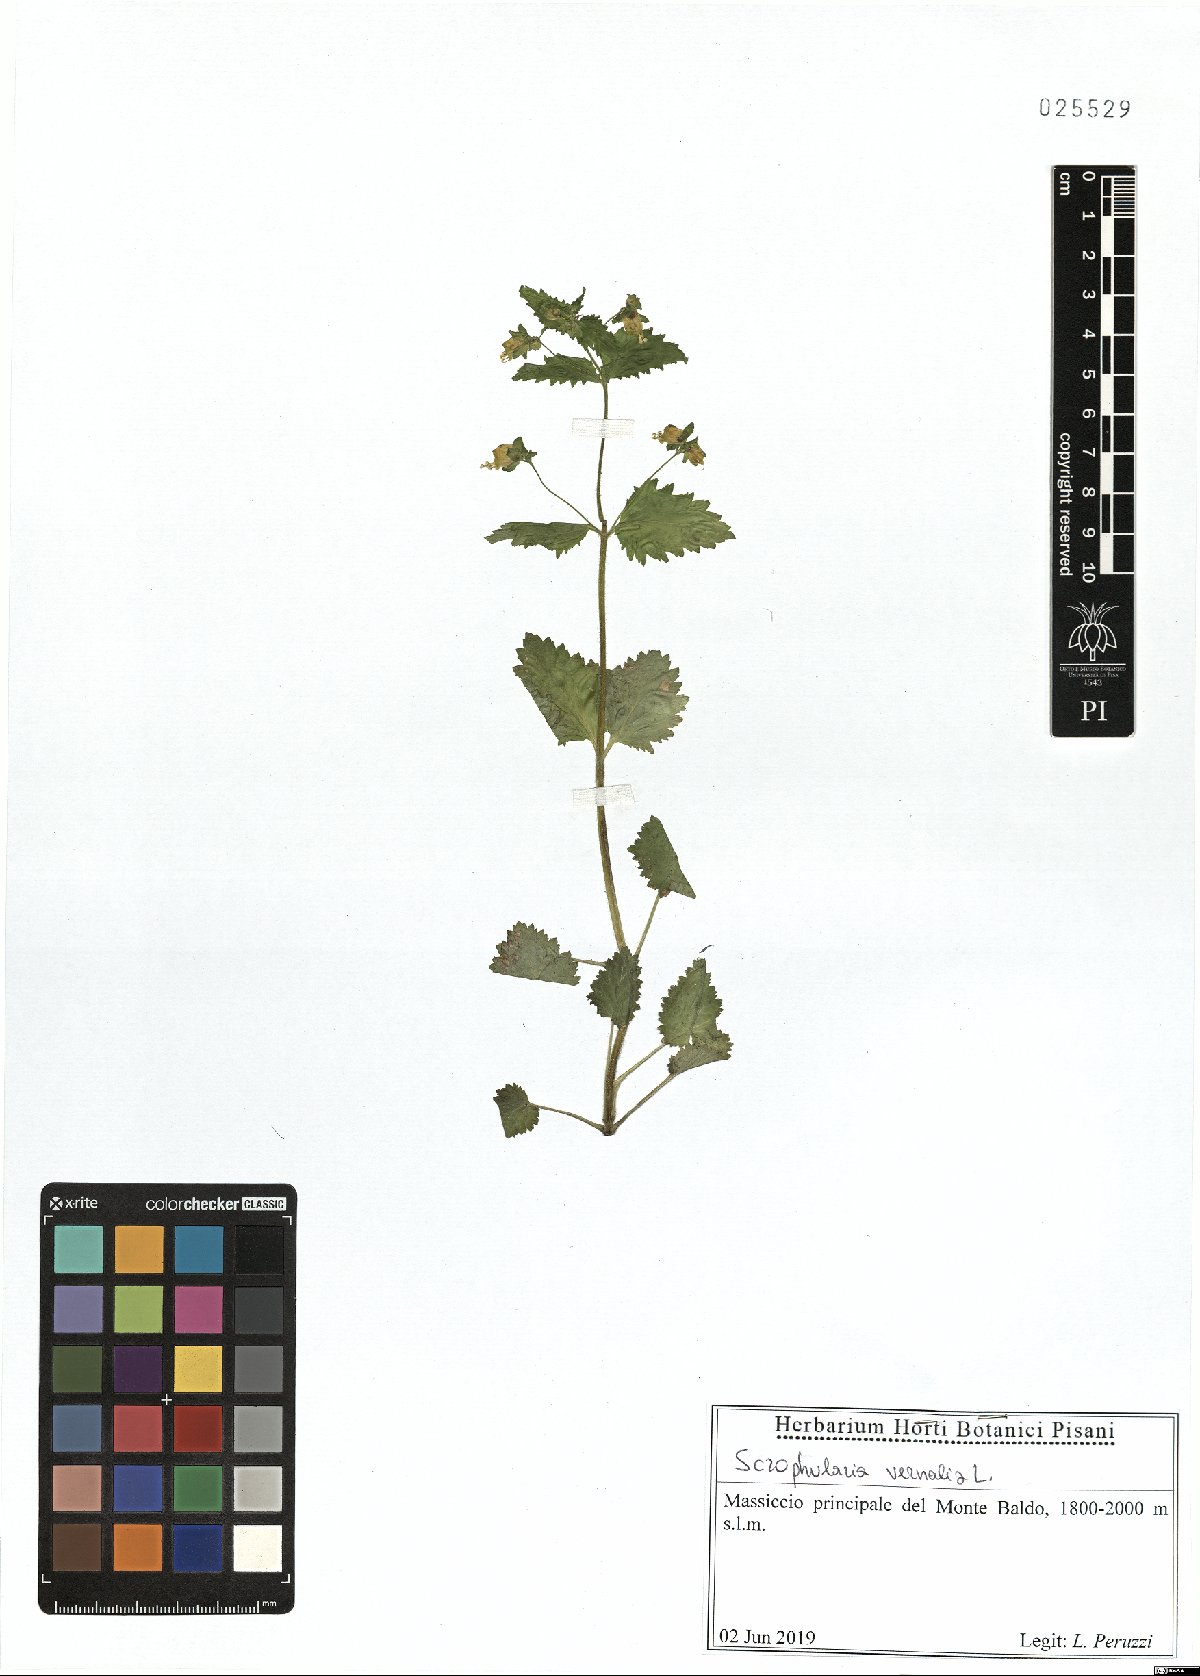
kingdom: Plantae
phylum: Tracheophyta
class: Magnoliopsida
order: Lamiales
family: Scrophulariaceae
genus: Scrophularia
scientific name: Scrophularia vernalis
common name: Yellow figwort
